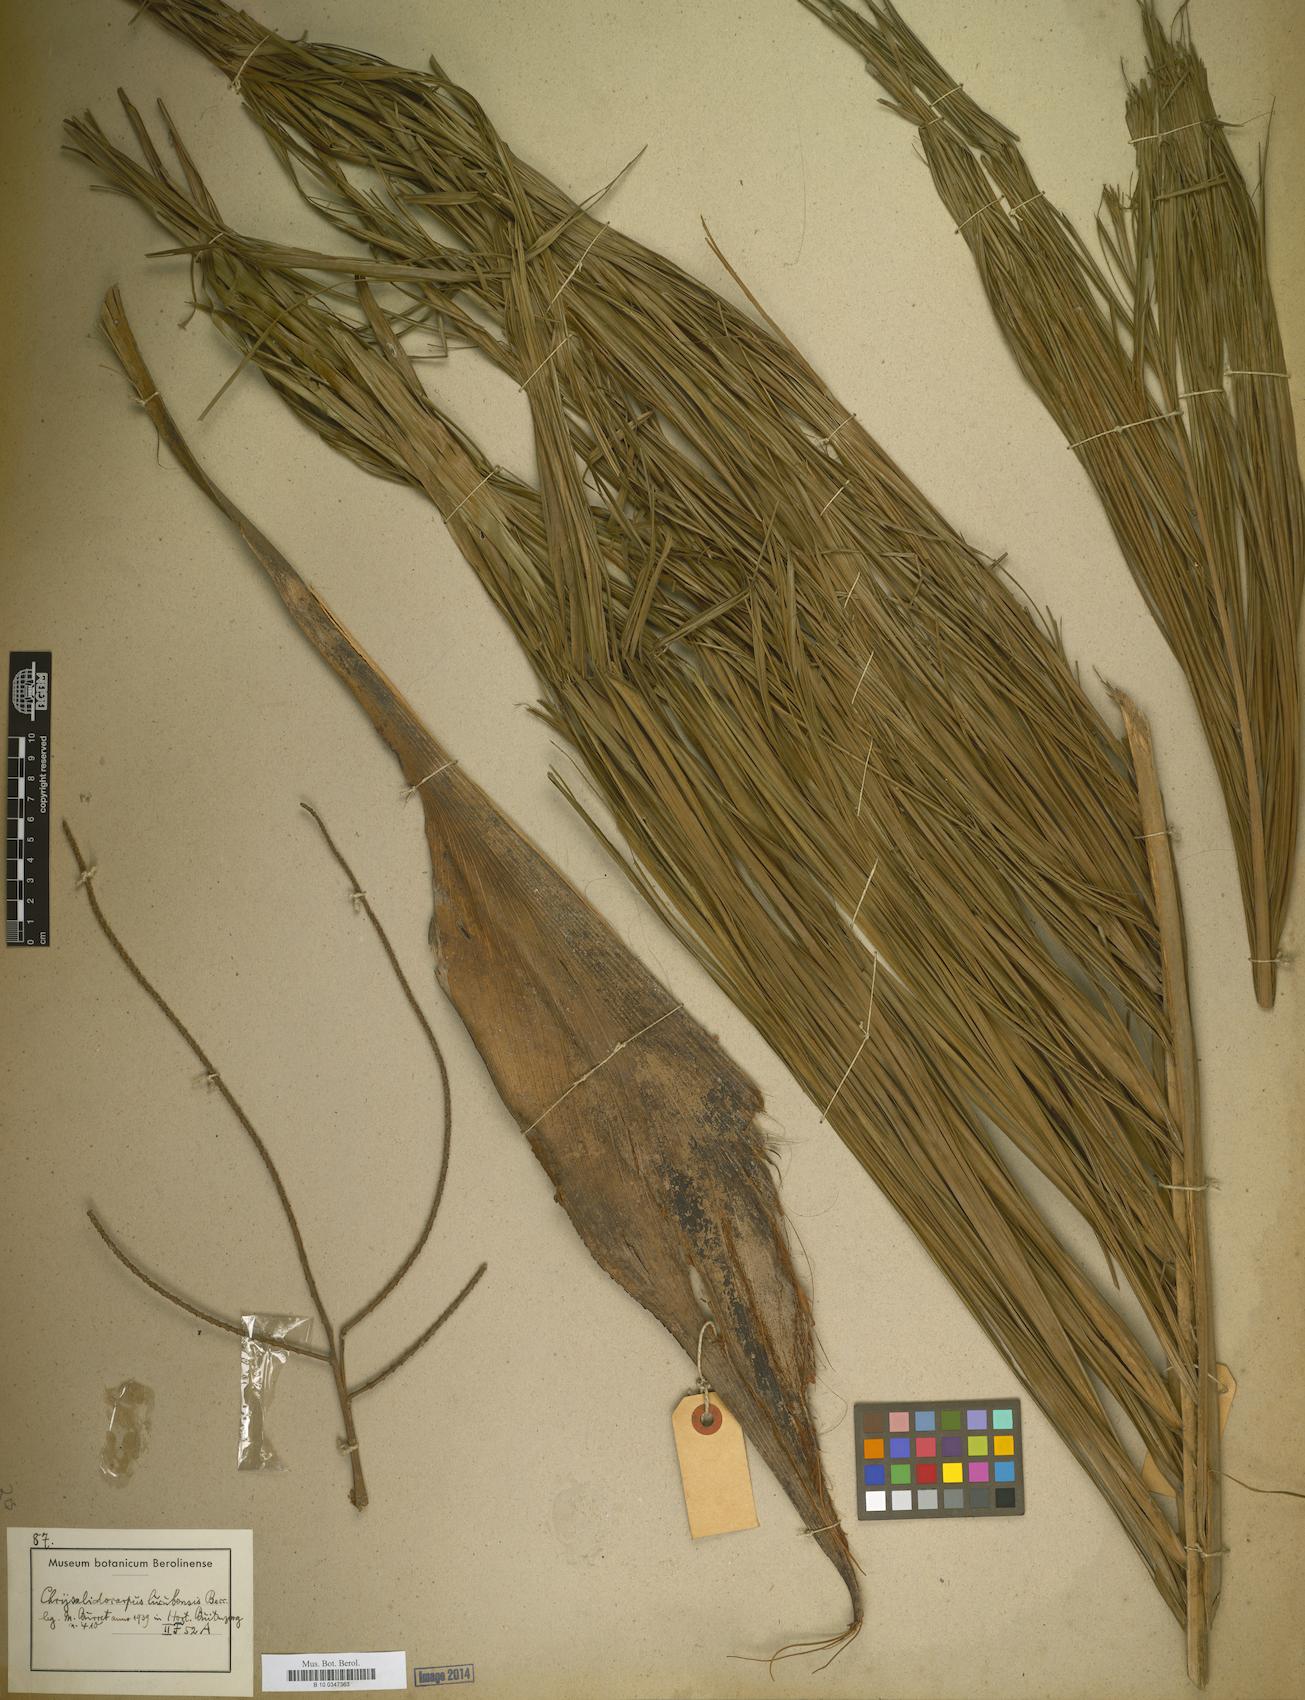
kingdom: Plantae
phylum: Tracheophyta
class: Liliopsida
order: Arecales
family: Arecaceae
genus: Dypsis
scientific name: Dypsis
